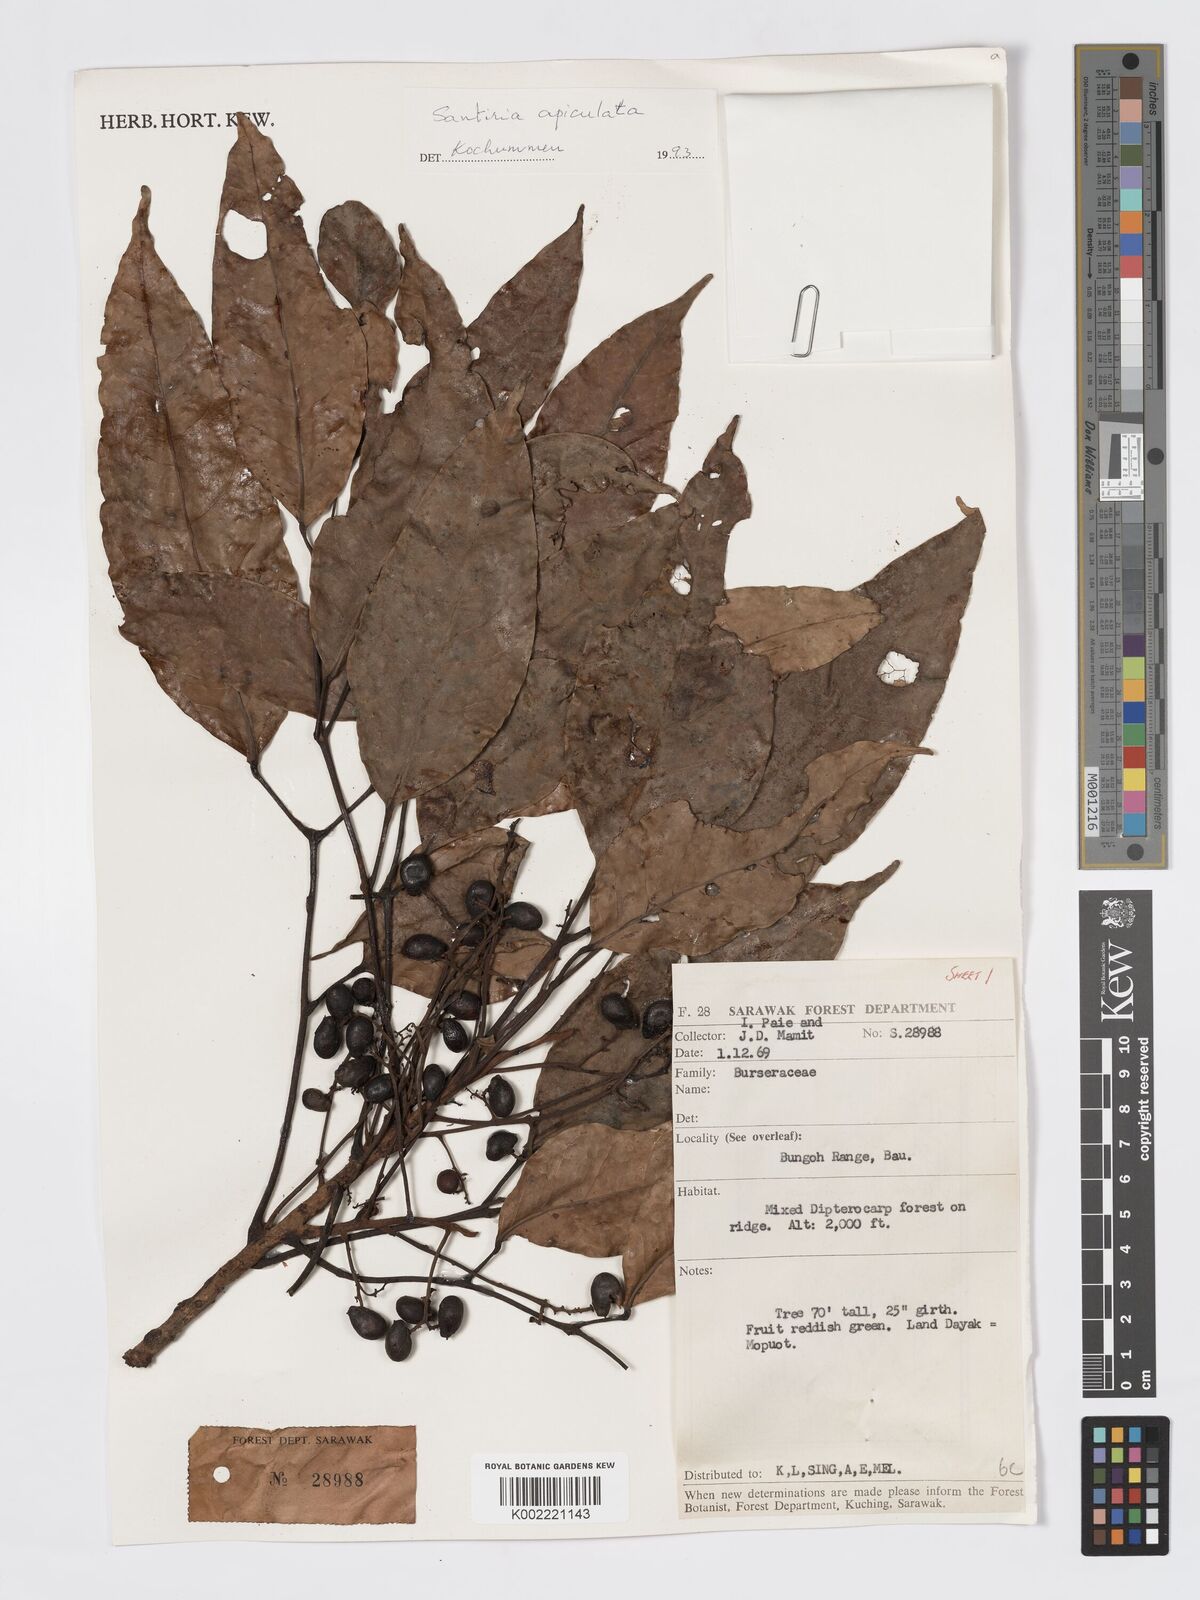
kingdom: Plantae
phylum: Tracheophyta
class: Magnoliopsida
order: Sapindales
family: Burseraceae
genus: Santiria
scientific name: Santiria apiculata
